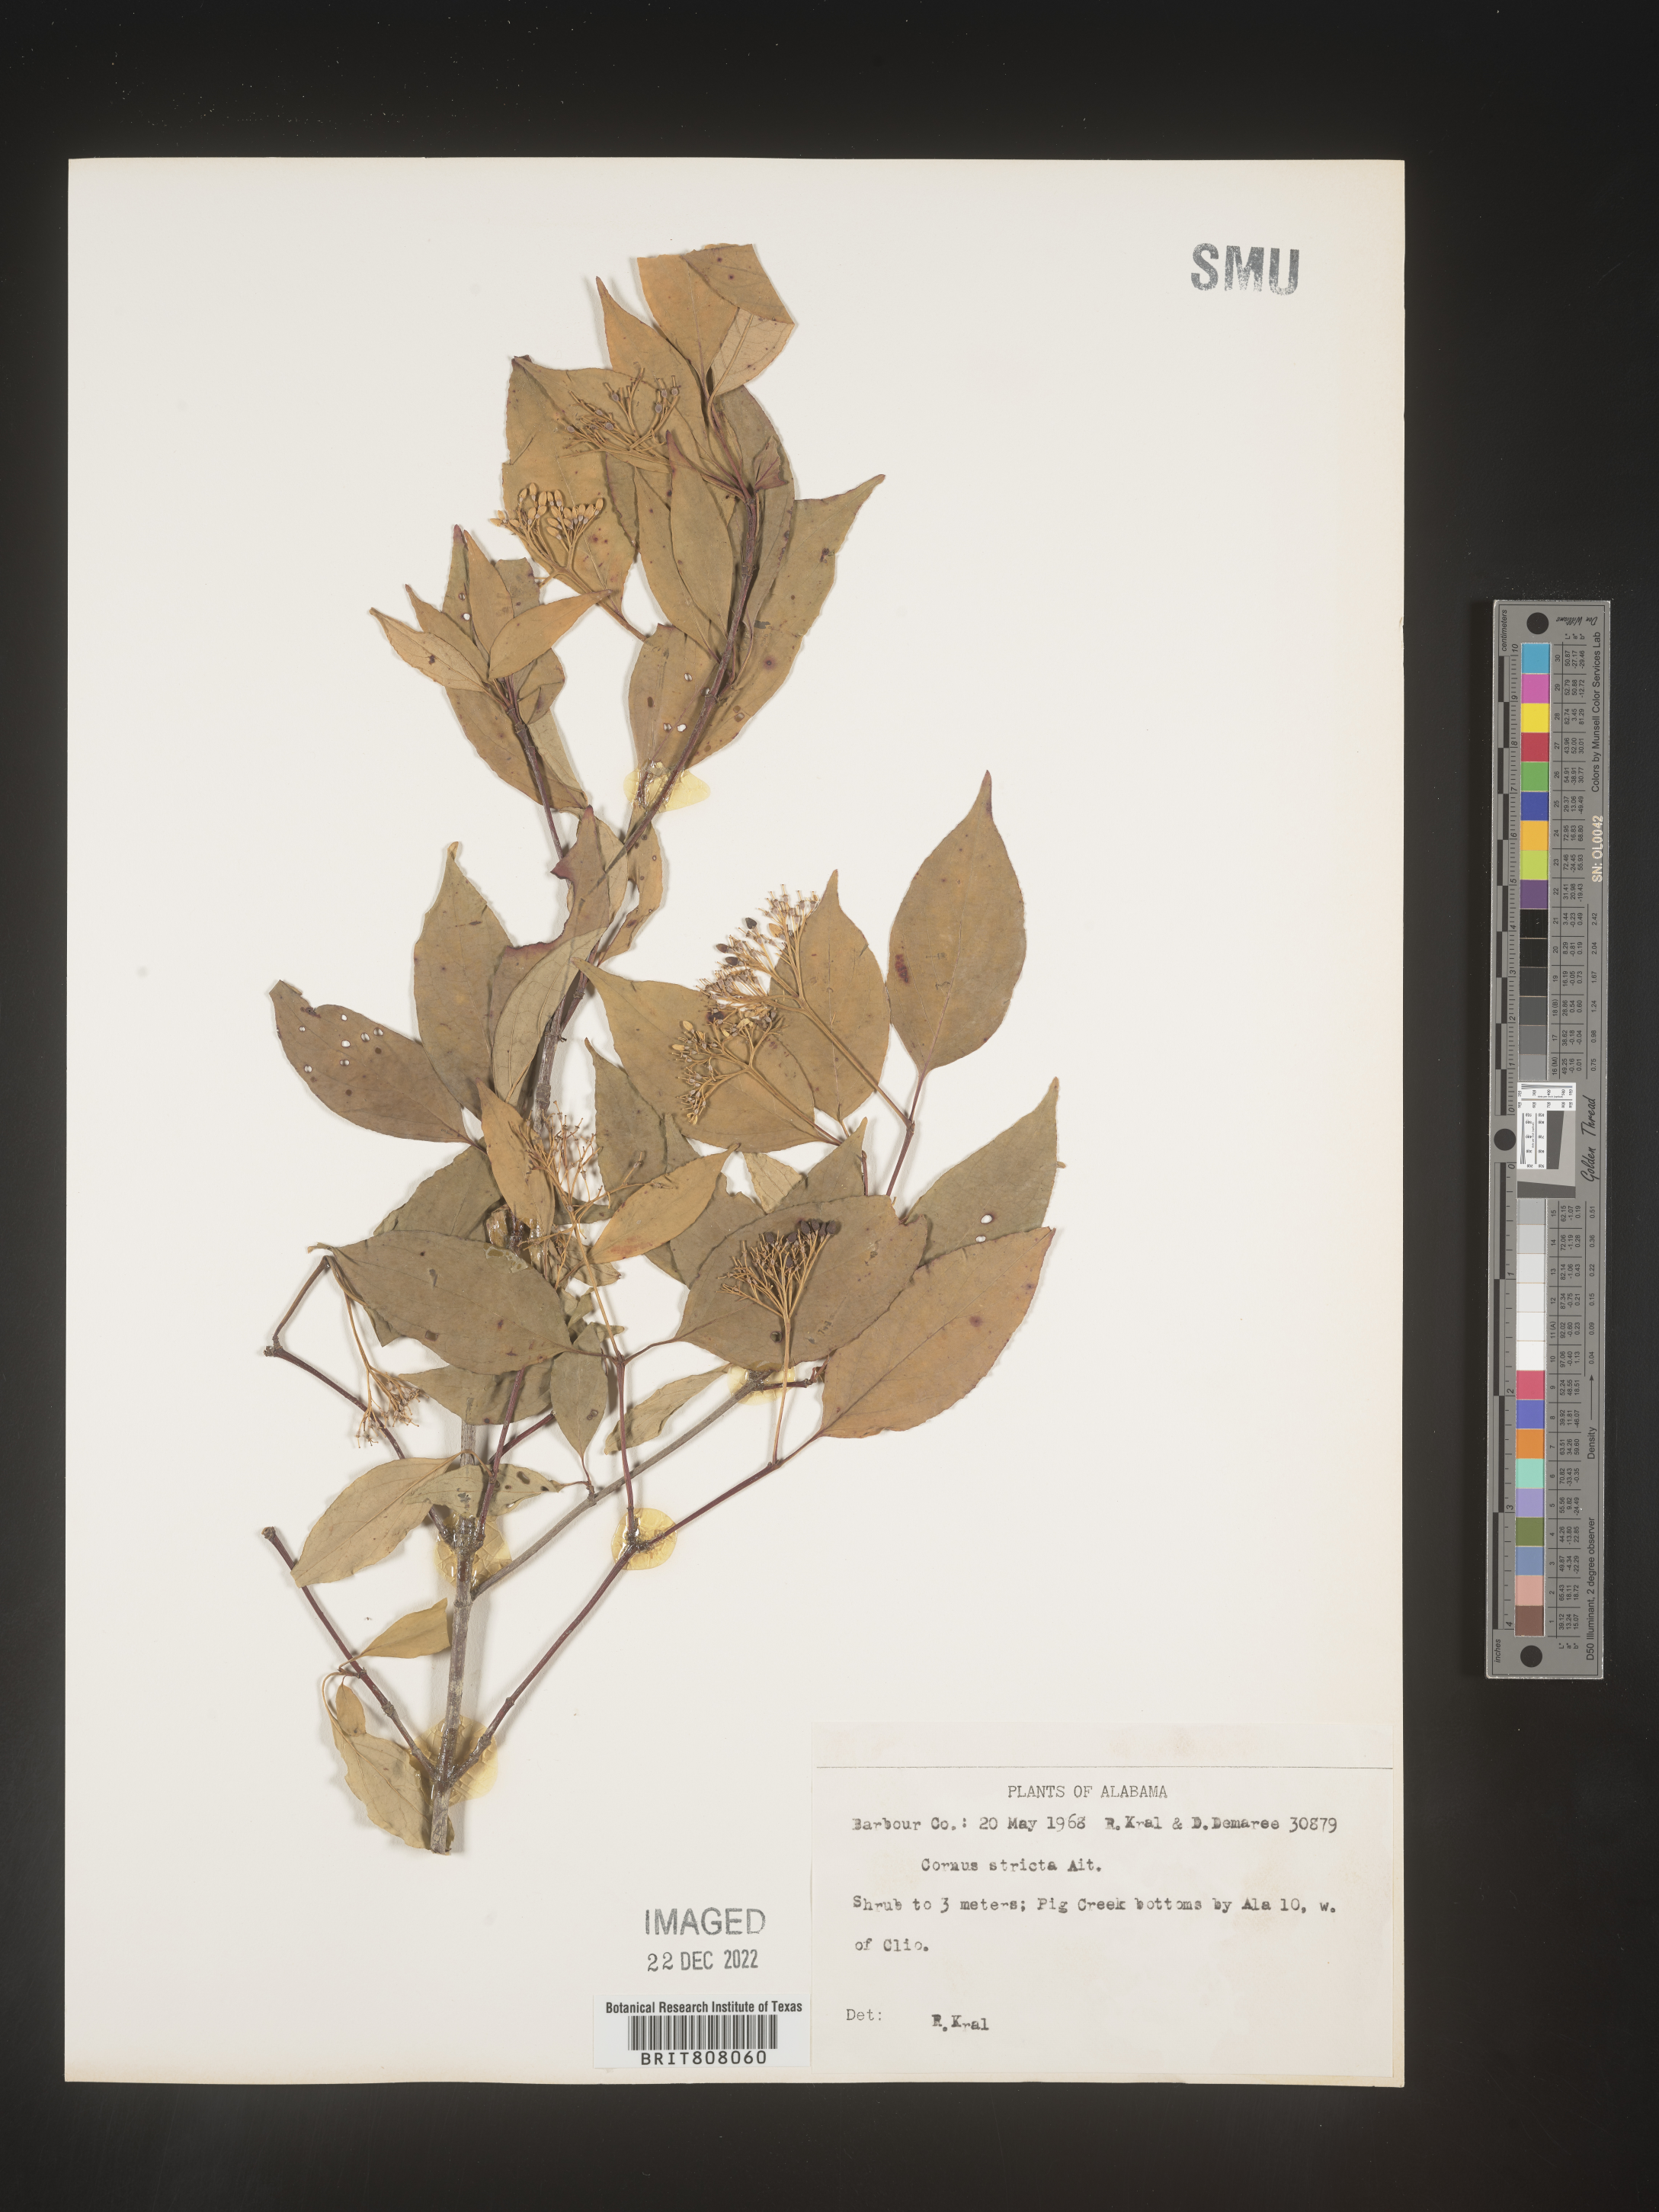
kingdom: Plantae
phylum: Tracheophyta
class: Magnoliopsida
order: Cornales
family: Cornaceae
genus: Cornus
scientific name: Cornus foemina
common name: Swamp dogwood
